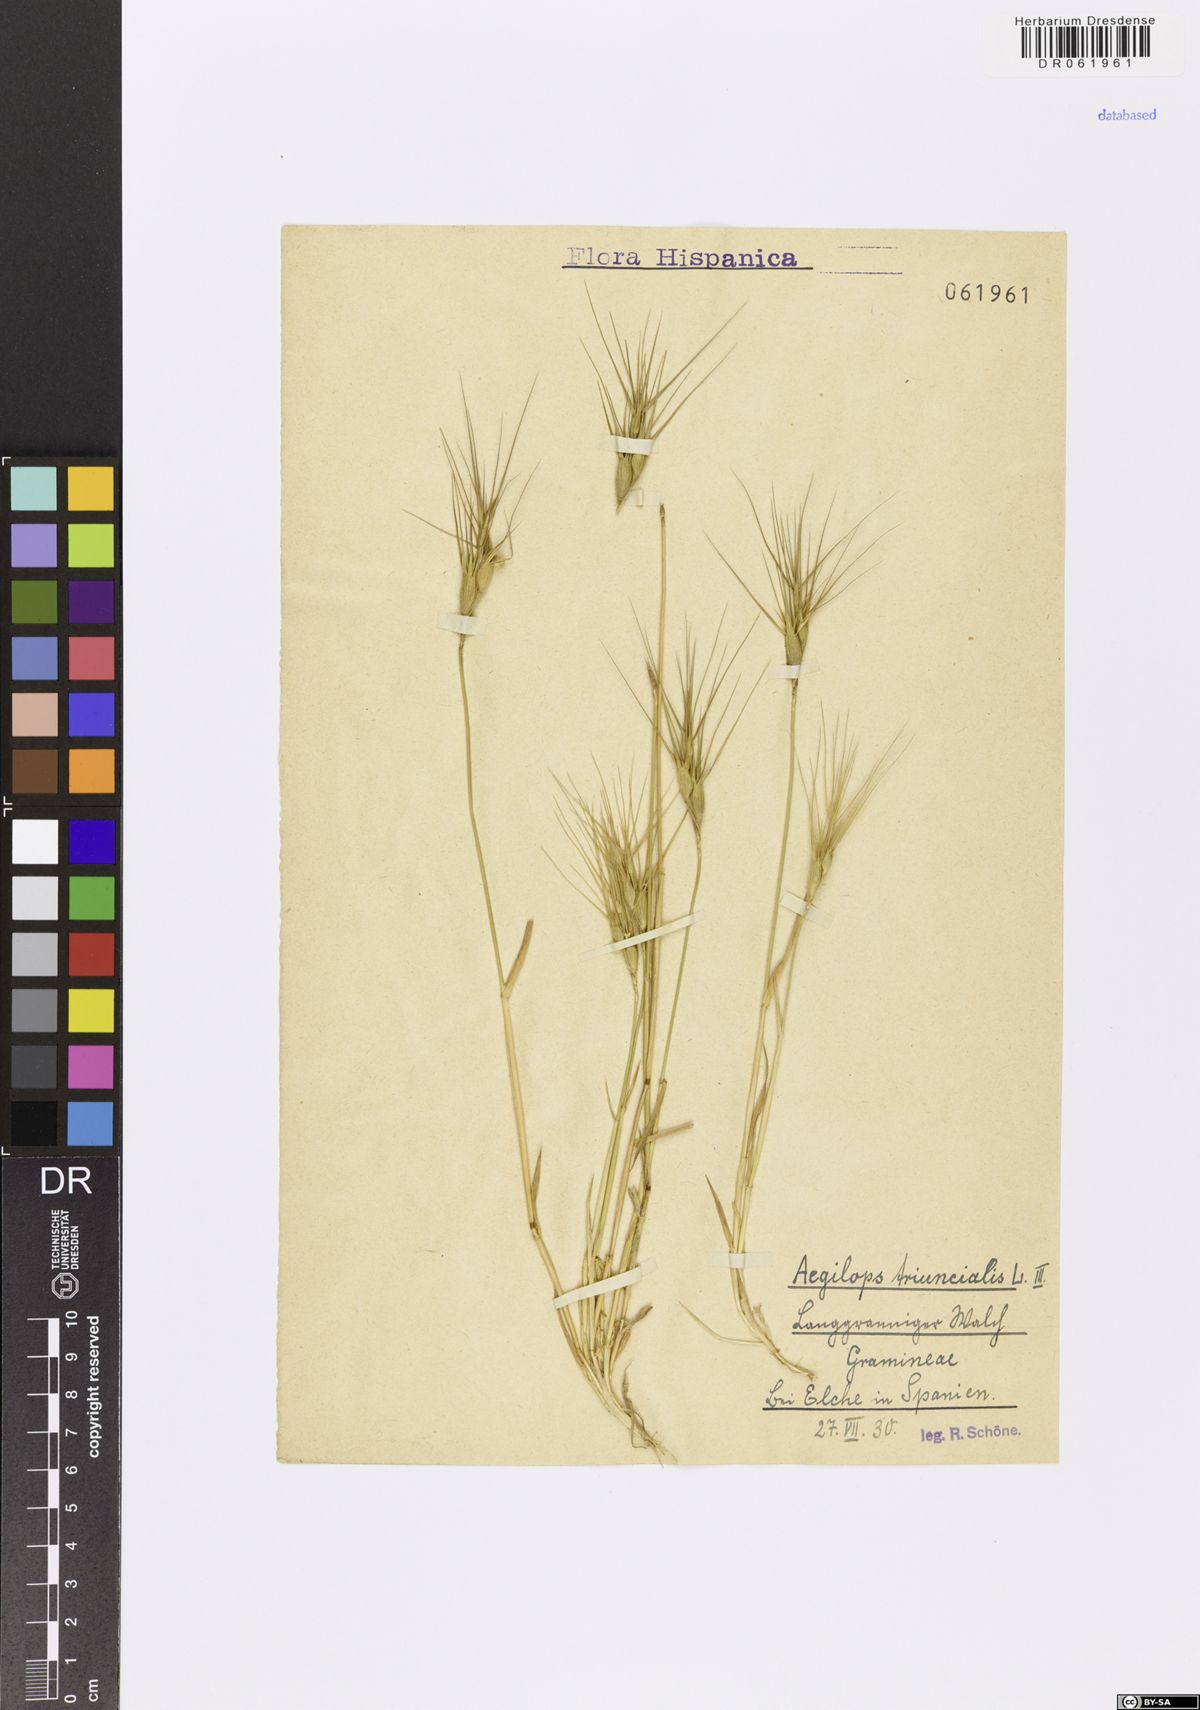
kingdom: Plantae
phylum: Tracheophyta
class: Liliopsida
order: Poales
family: Poaceae
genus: Aegilops
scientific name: Aegilops triuncialis
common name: Barb goat grass
